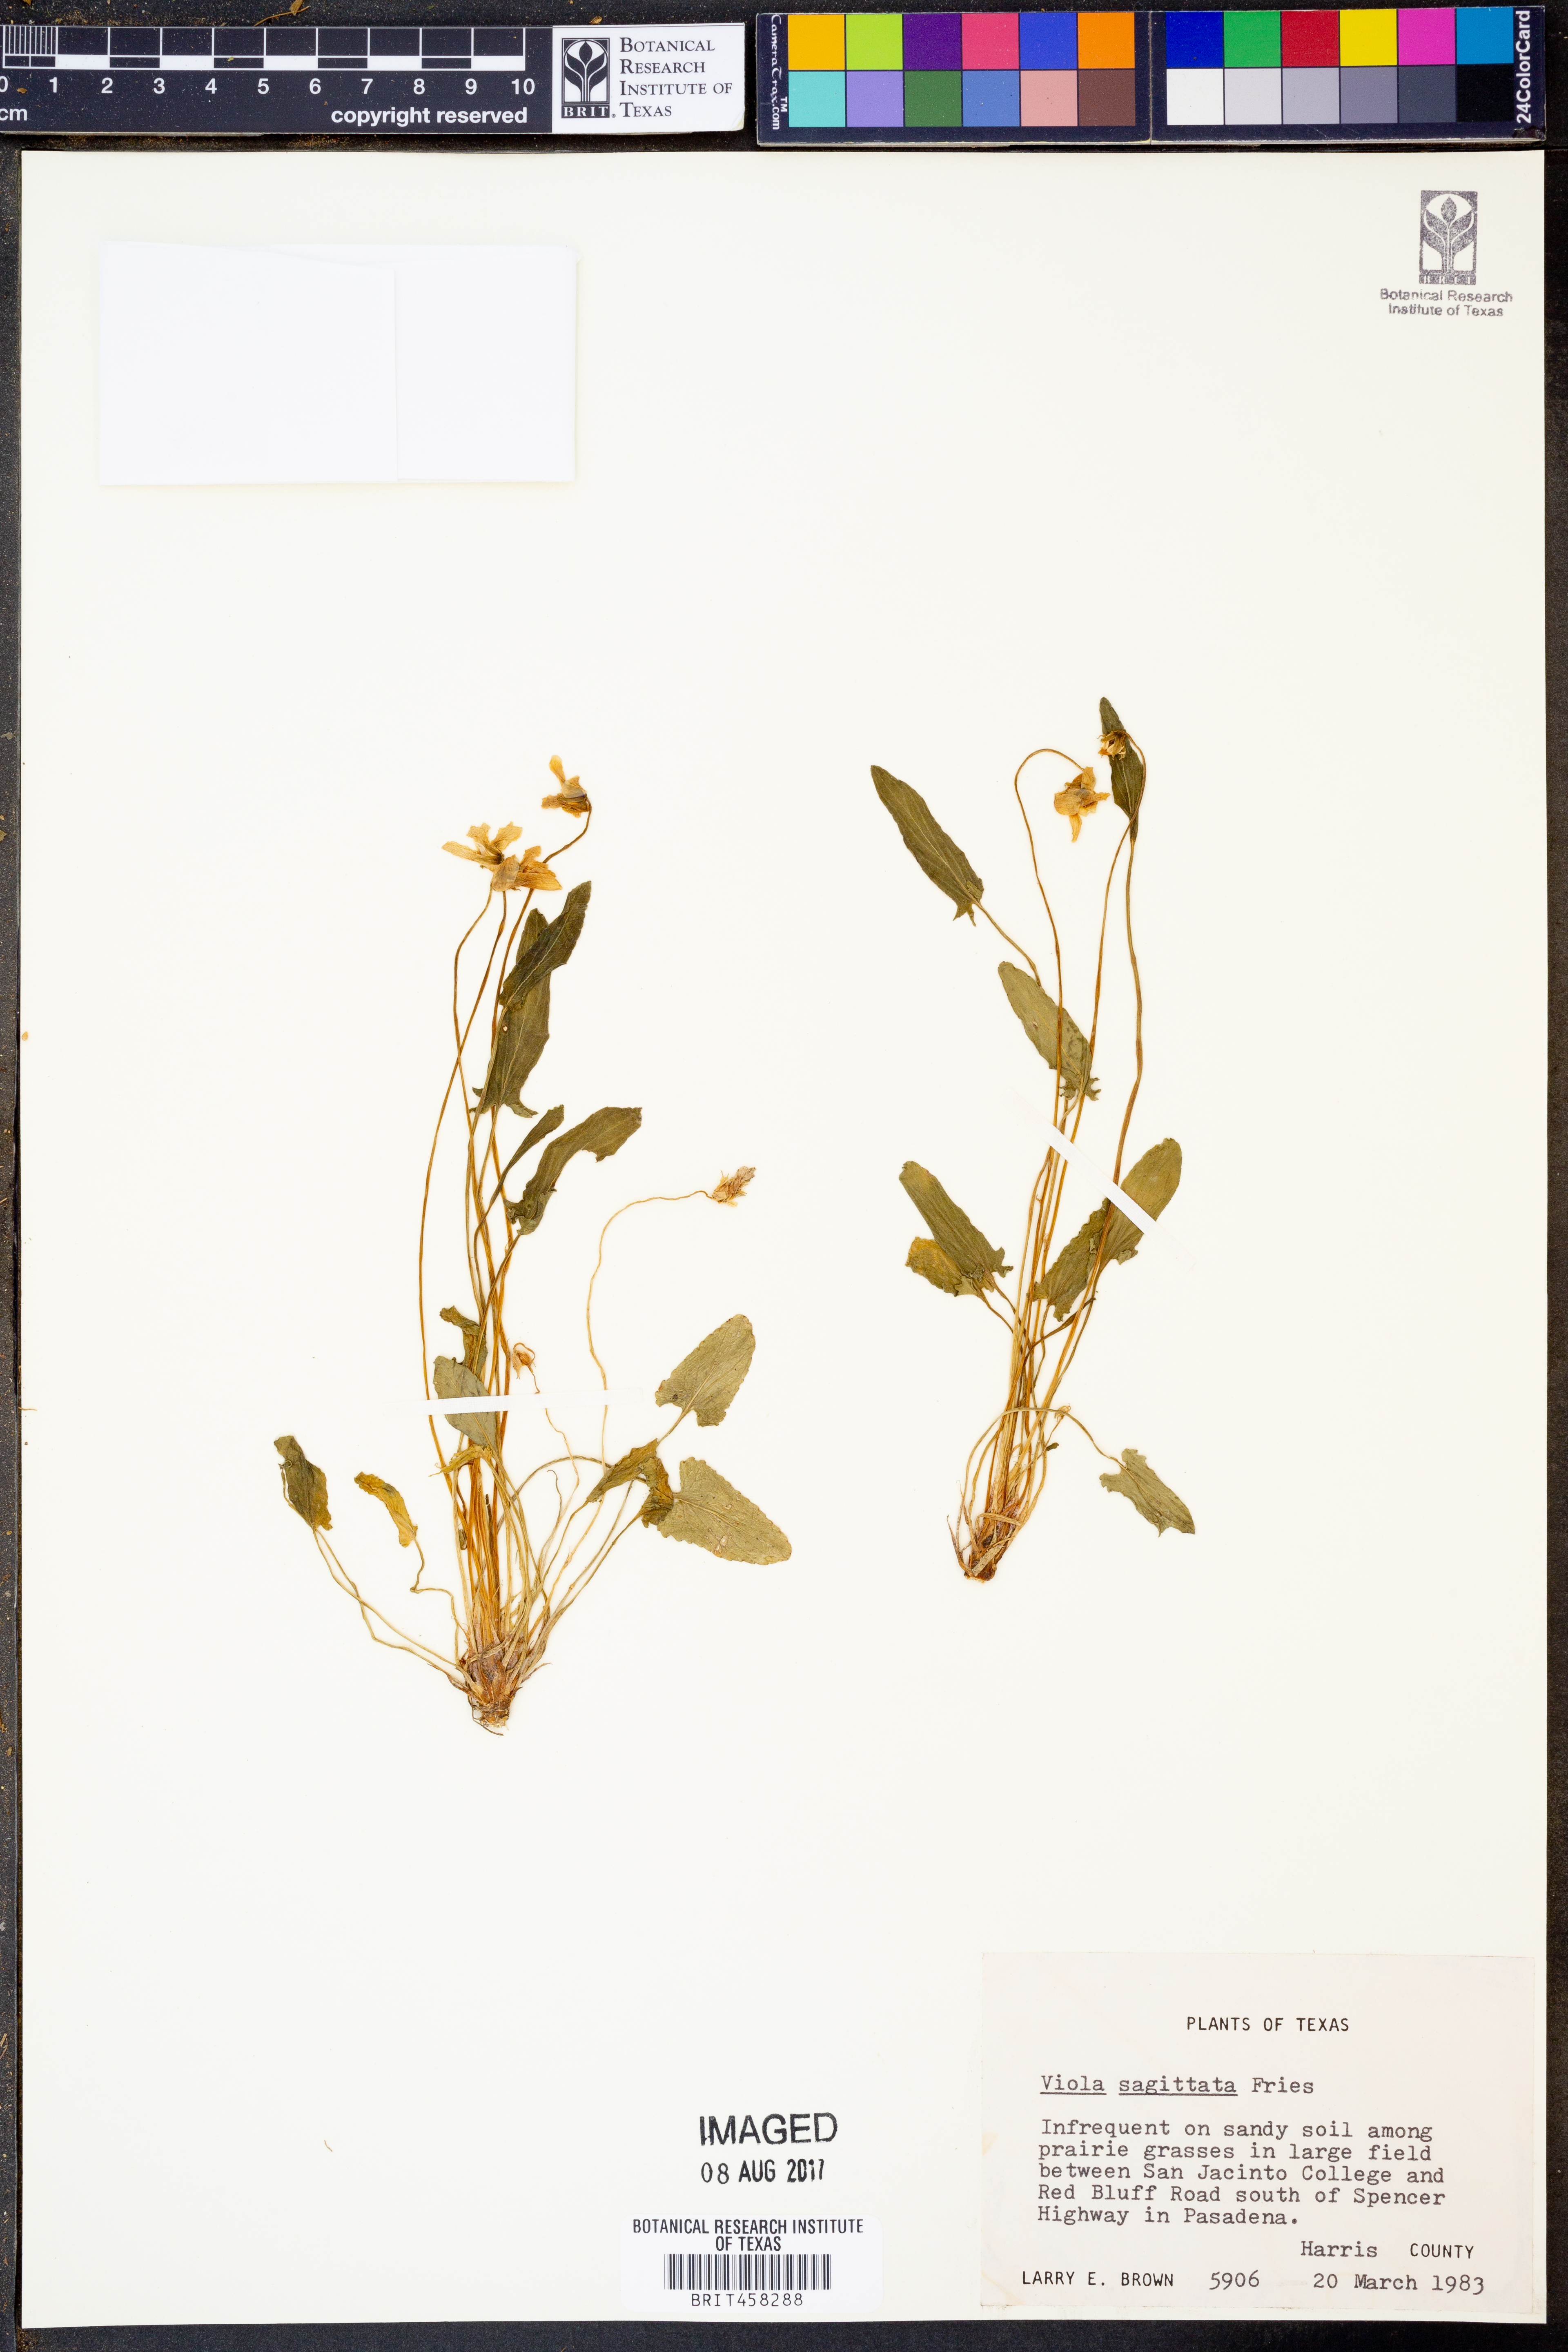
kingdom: Plantae
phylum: Tracheophyta
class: Magnoliopsida
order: Malpighiales
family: Violaceae
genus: Viola
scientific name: Viola sagittata
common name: Arrowhead violet
